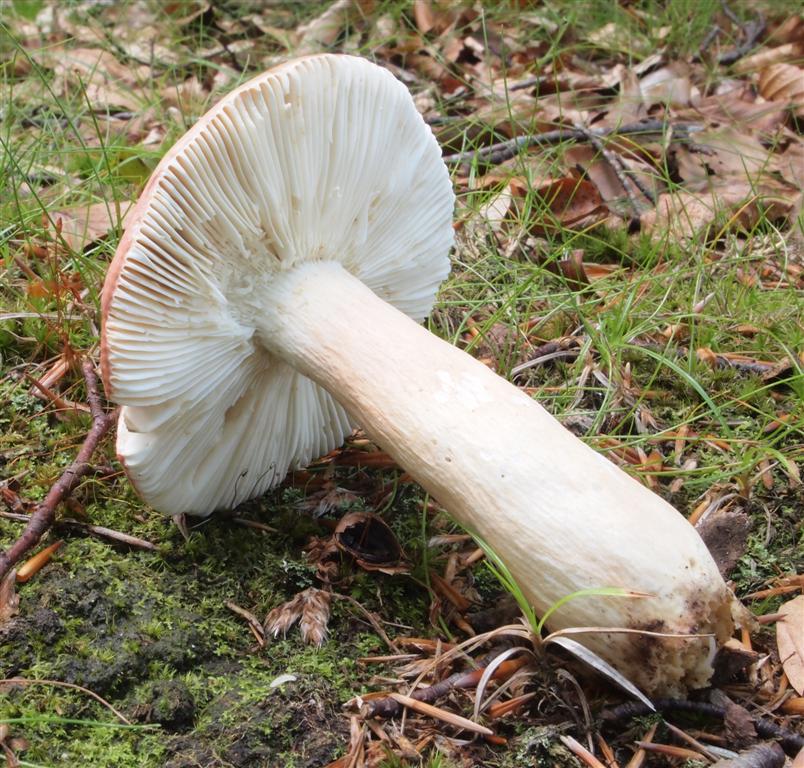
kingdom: Fungi
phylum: Basidiomycota
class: Agaricomycetes
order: Russulales
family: Russulaceae
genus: Russula
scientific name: Russula rosea
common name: fastkødet skørhat
